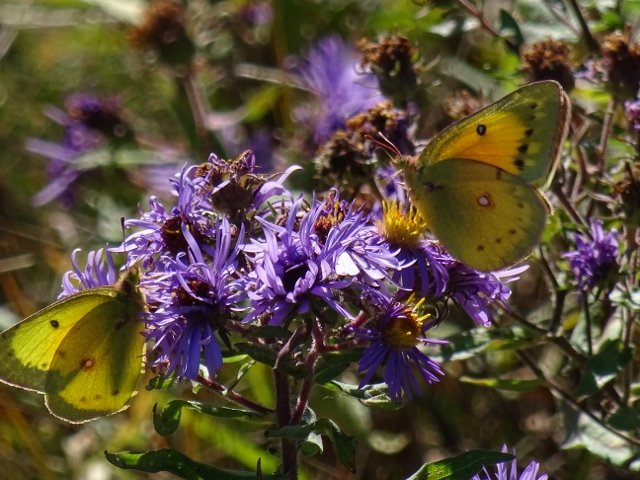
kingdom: Animalia
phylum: Arthropoda
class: Insecta
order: Lepidoptera
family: Pieridae
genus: Colias
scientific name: Colias eurytheme
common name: Orange Sulphur
